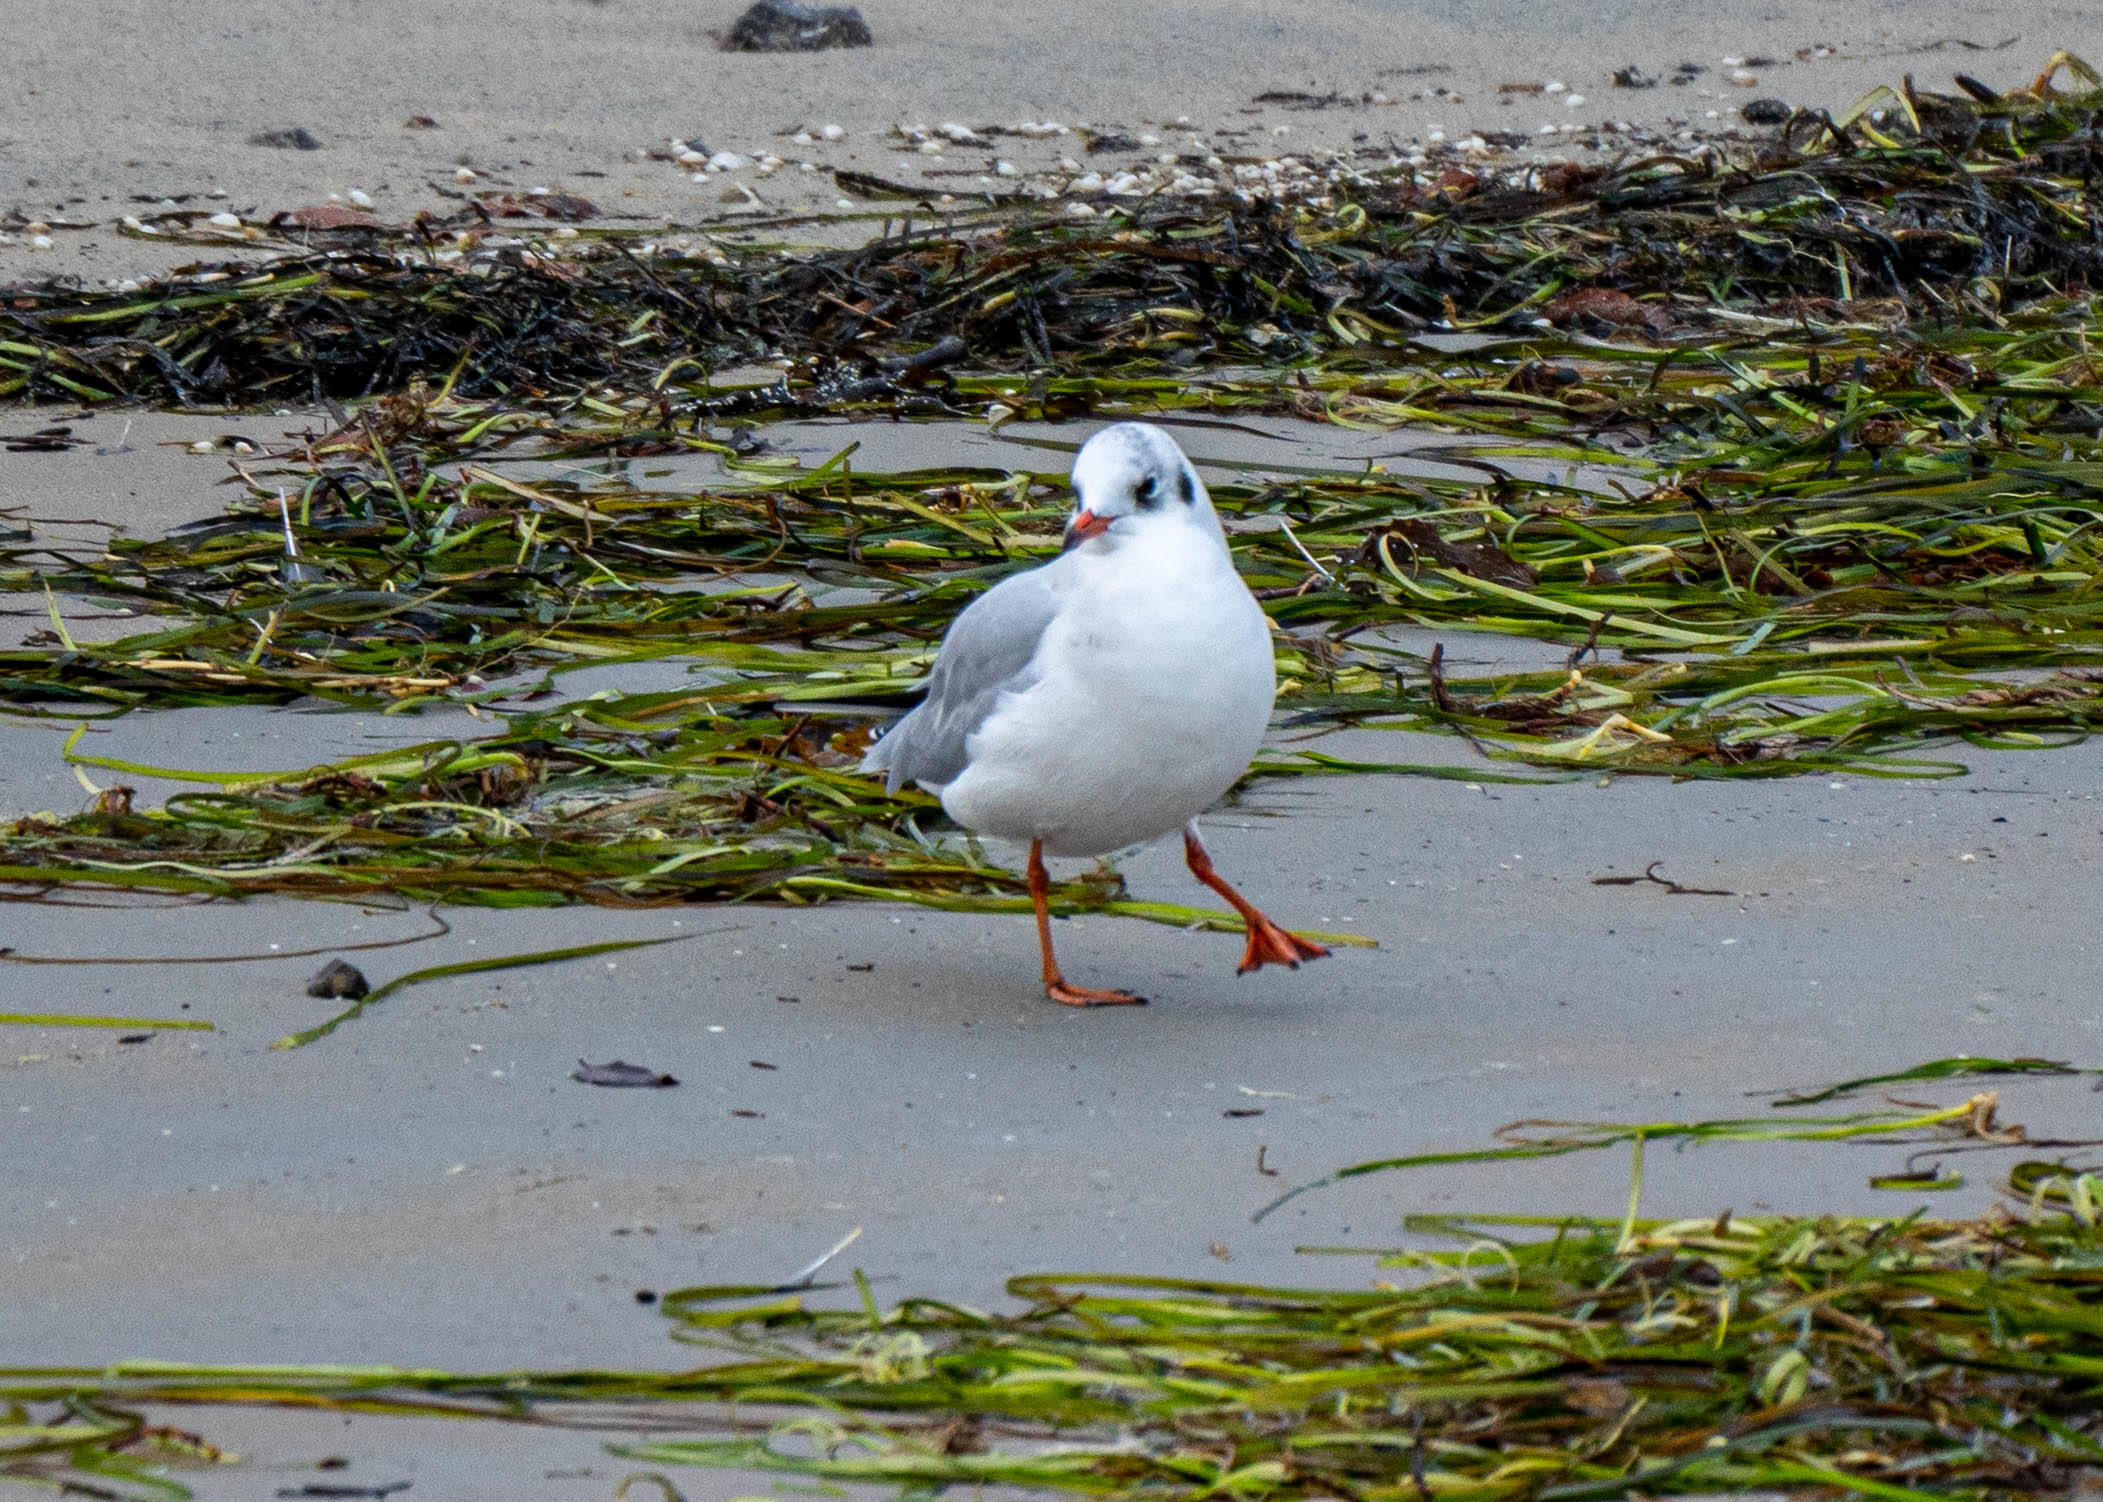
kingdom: Animalia
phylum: Chordata
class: Aves
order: Charadriiformes
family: Laridae
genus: Chroicocephalus
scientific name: Chroicocephalus ridibundus
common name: Hættemåge
